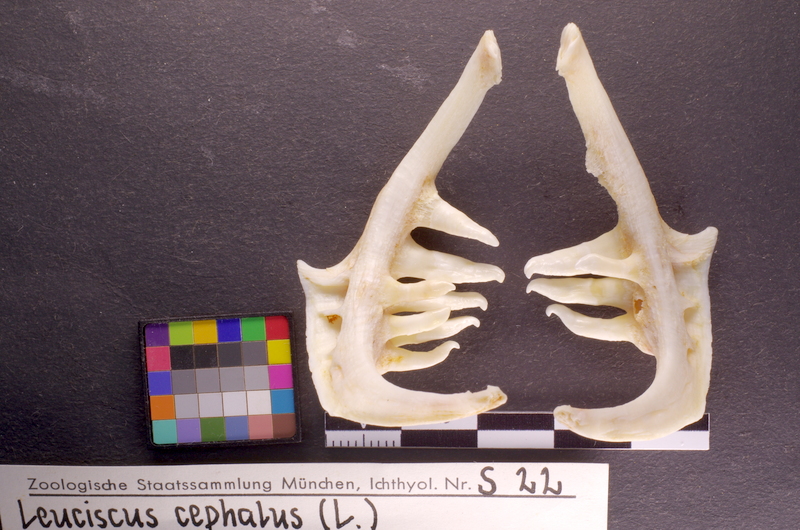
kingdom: Animalia
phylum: Chordata
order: Cypriniformes
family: Cyprinidae
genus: Squalius
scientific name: Squalius cephalus
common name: Chub
